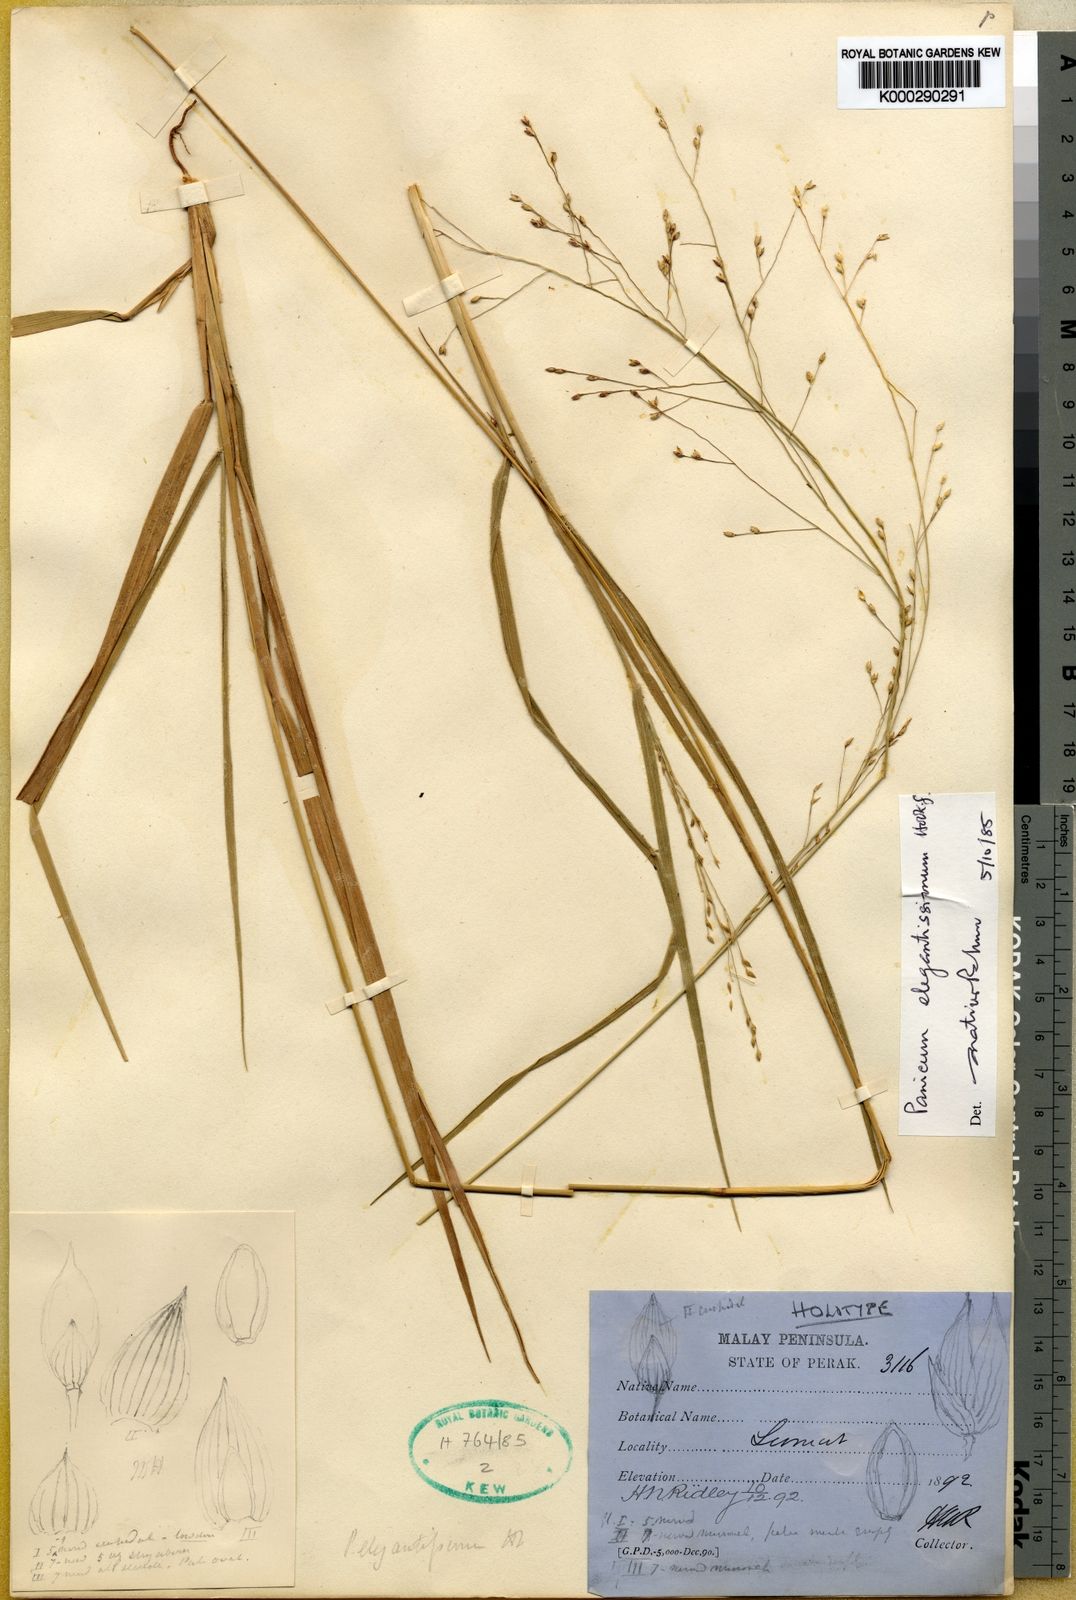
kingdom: Plantae
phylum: Tracheophyta
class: Liliopsida
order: Poales
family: Poaceae
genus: Panicum
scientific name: Panicum curviflorum
